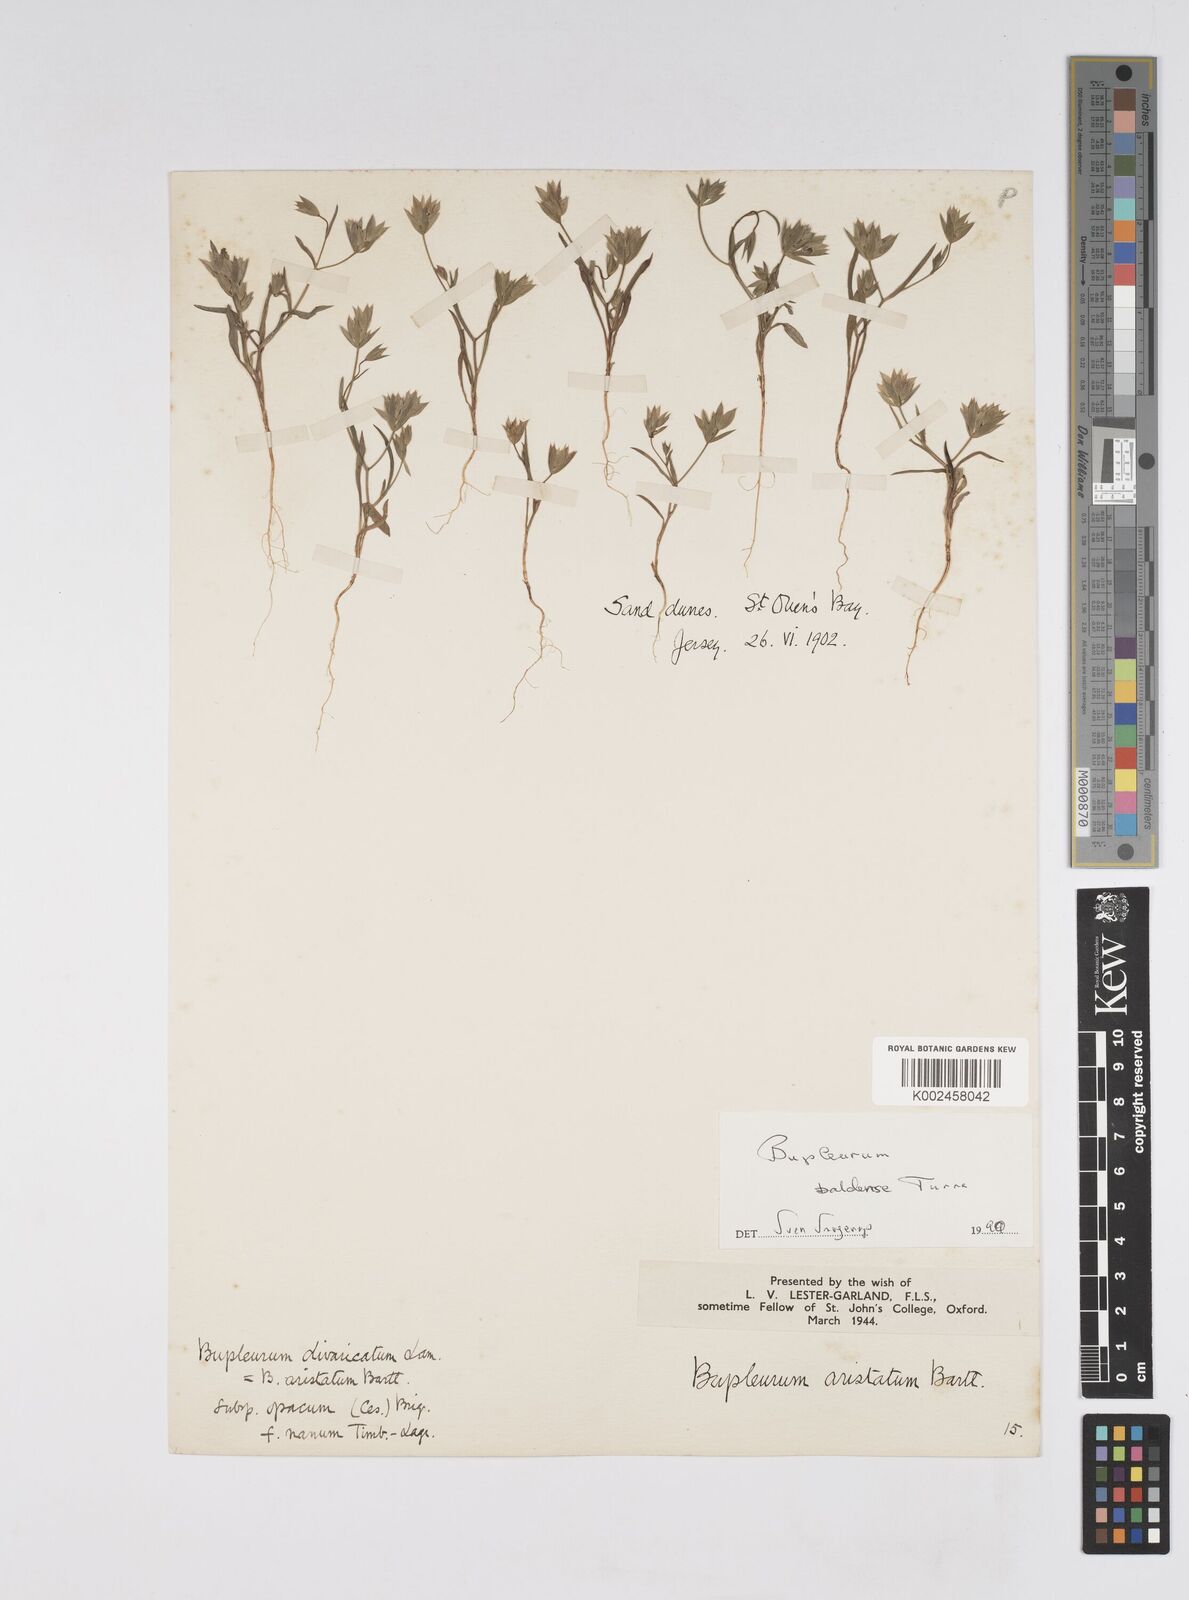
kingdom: Plantae
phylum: Tracheophyta
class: Magnoliopsida
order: Apiales
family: Apiaceae
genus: Bupleurum
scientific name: Bupleurum baldense
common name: Small hare's-ear
